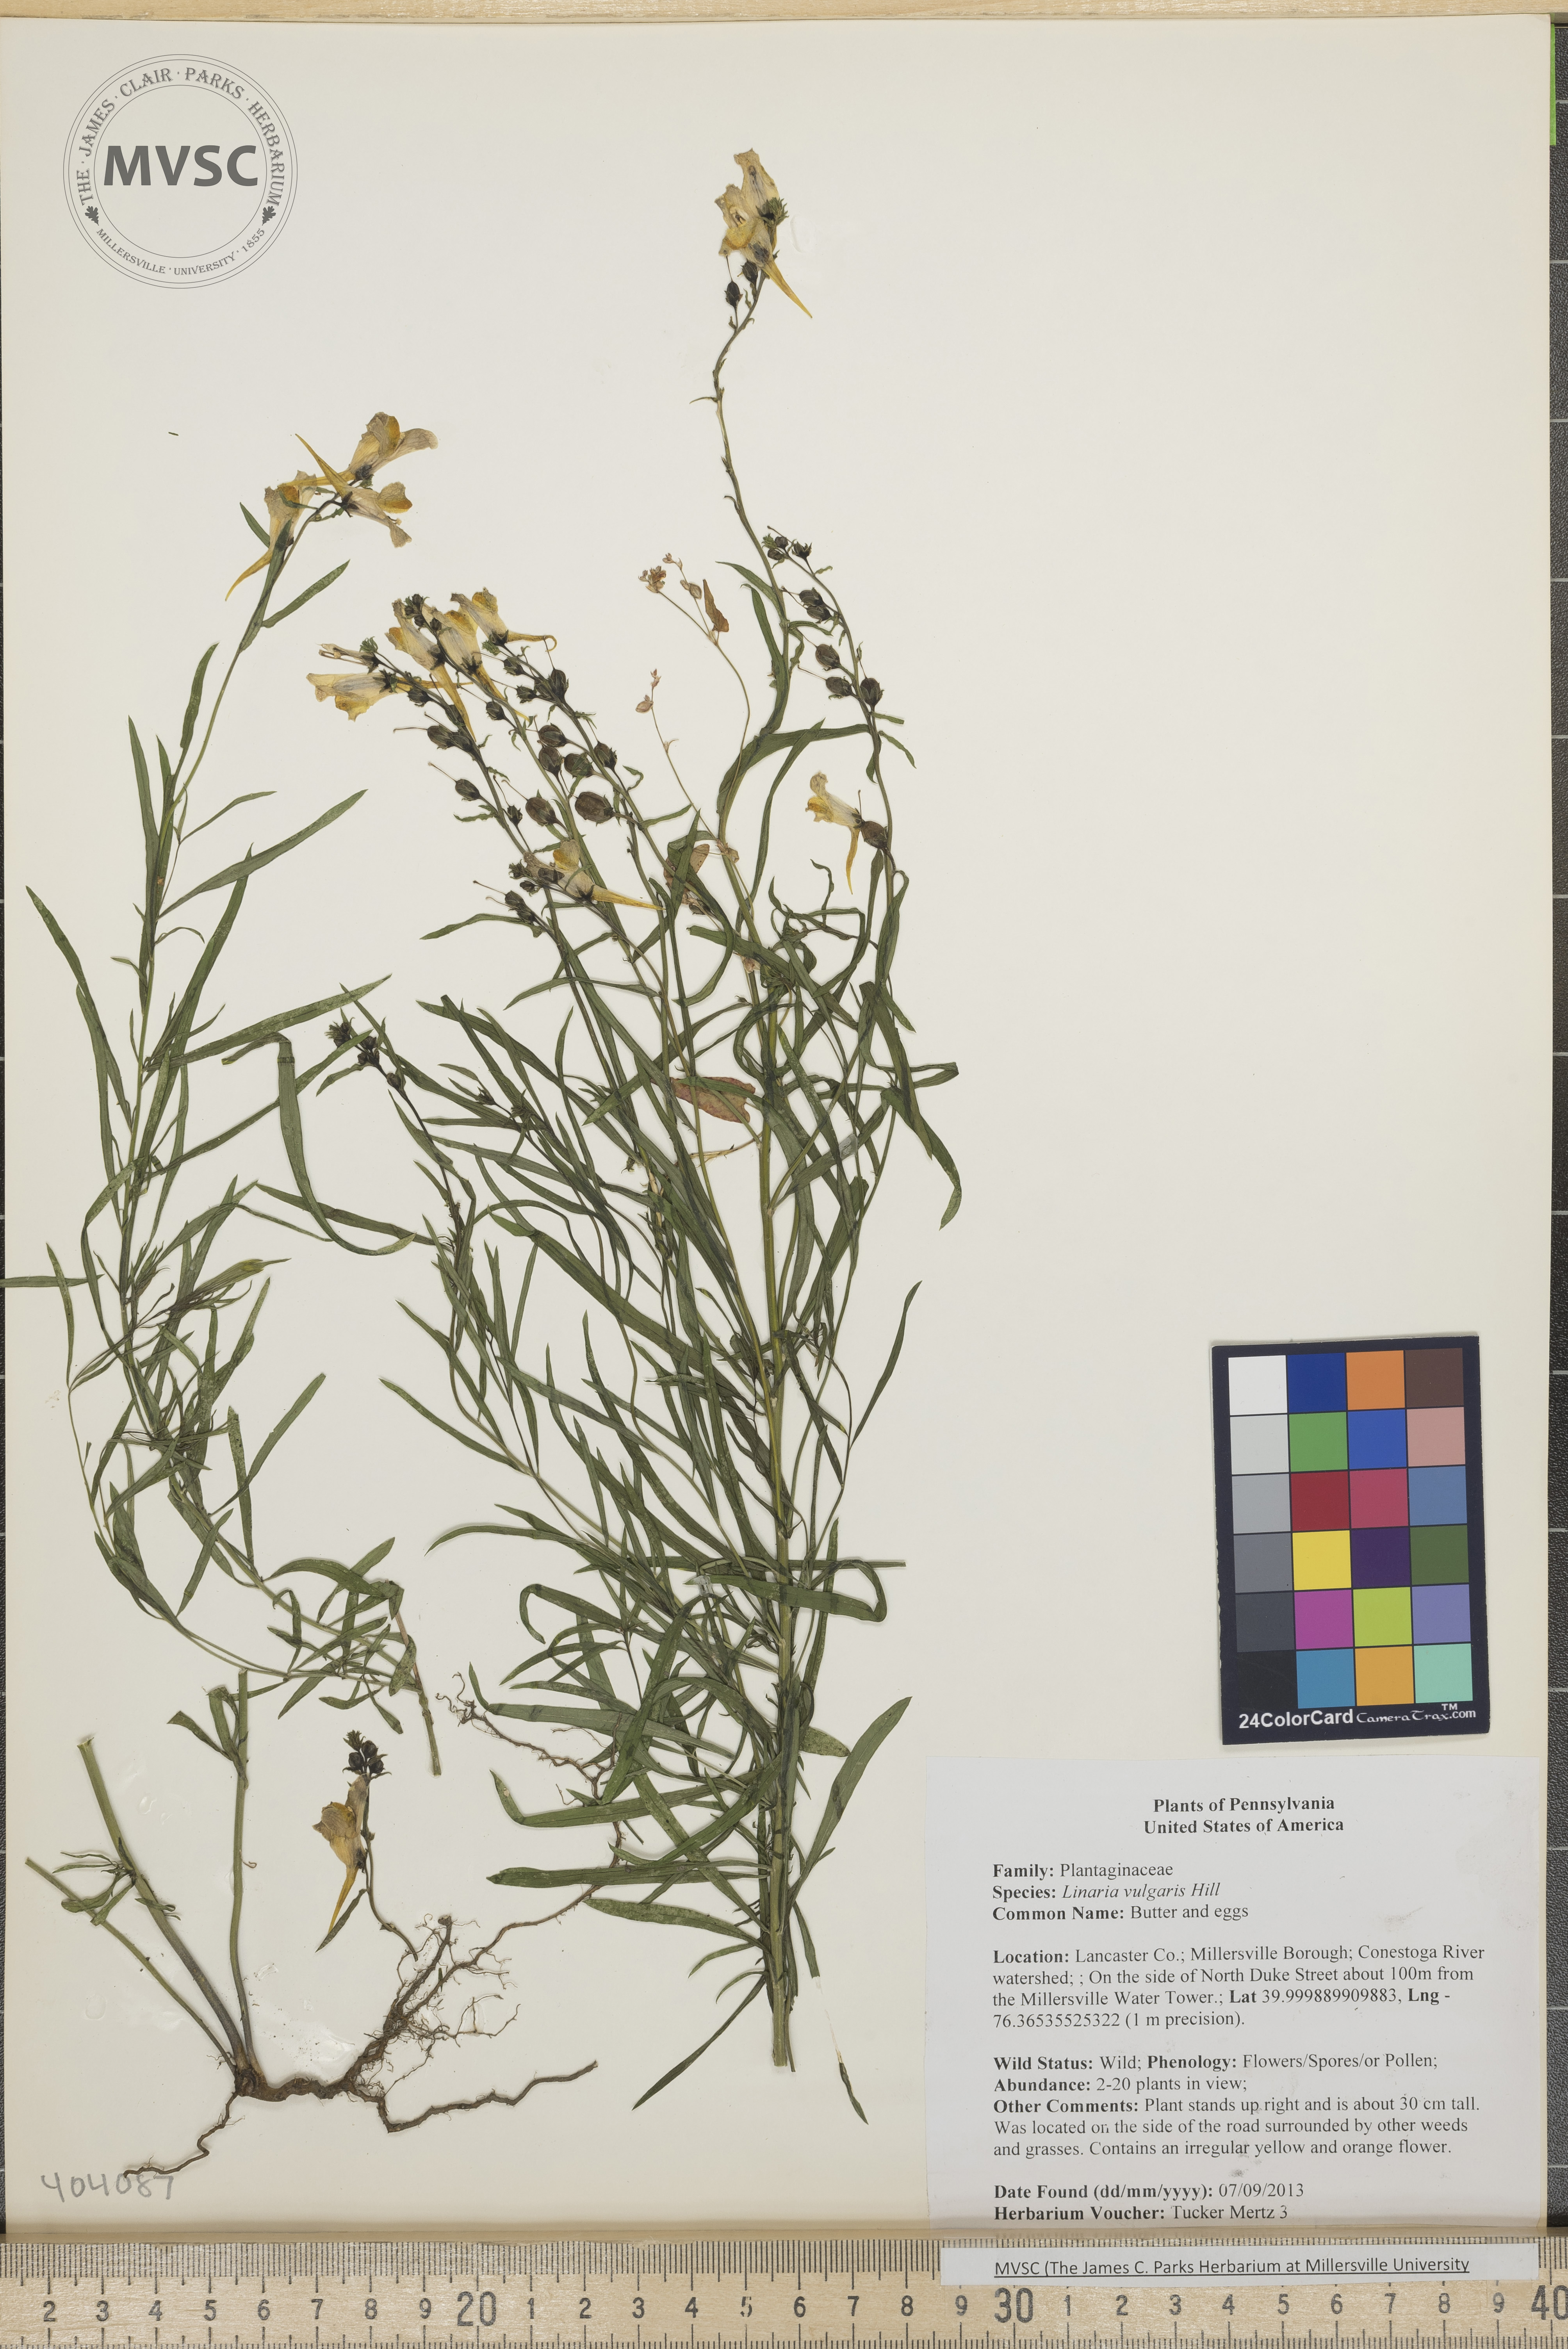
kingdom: Plantae
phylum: Tracheophyta
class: Magnoliopsida
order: Lamiales
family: Plantaginaceae
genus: Linaria
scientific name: Linaria vulgaris
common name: Butter and eggs
